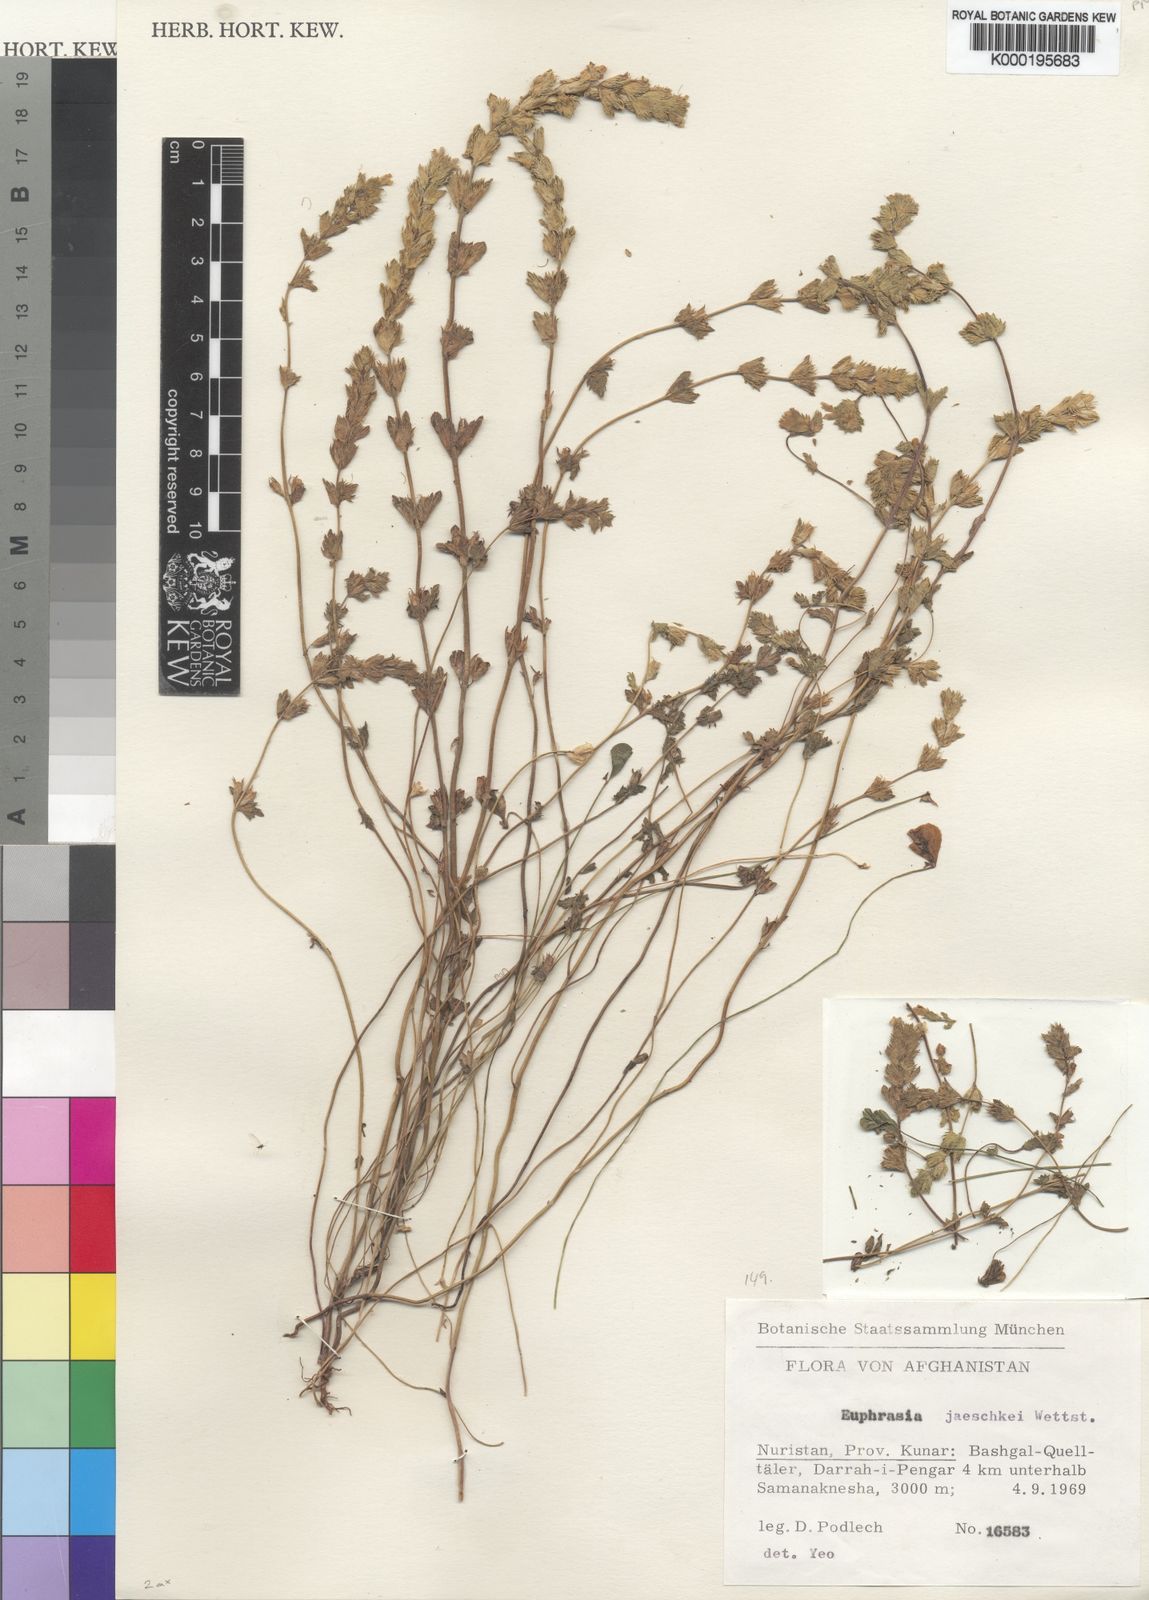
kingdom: Plantae
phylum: Tracheophyta
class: Magnoliopsida
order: Lamiales
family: Orobanchaceae
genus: Euphrasia
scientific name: Euphrasia jaeschkei
